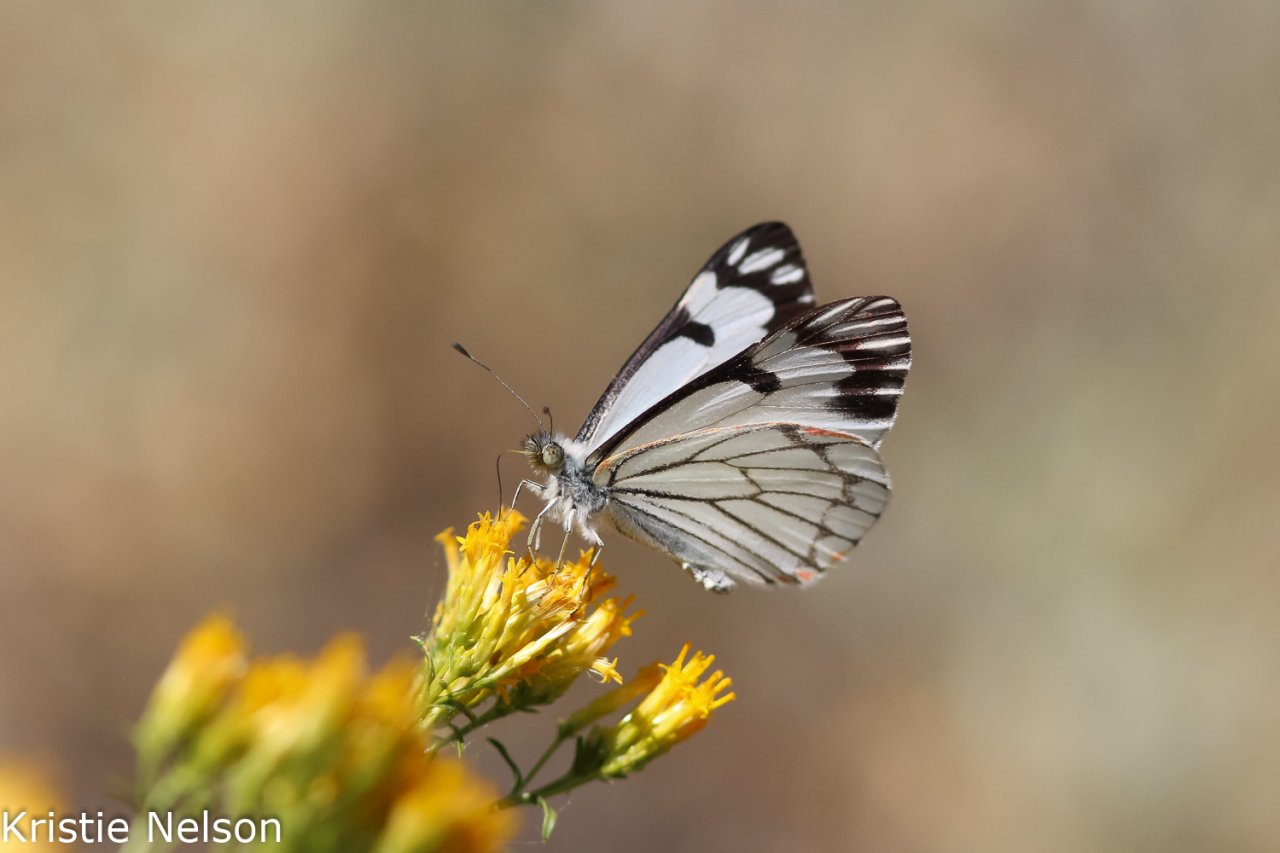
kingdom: Animalia
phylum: Arthropoda
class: Insecta
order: Lepidoptera
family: Pieridae
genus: Neophasia
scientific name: Neophasia menapia
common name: Pine White
